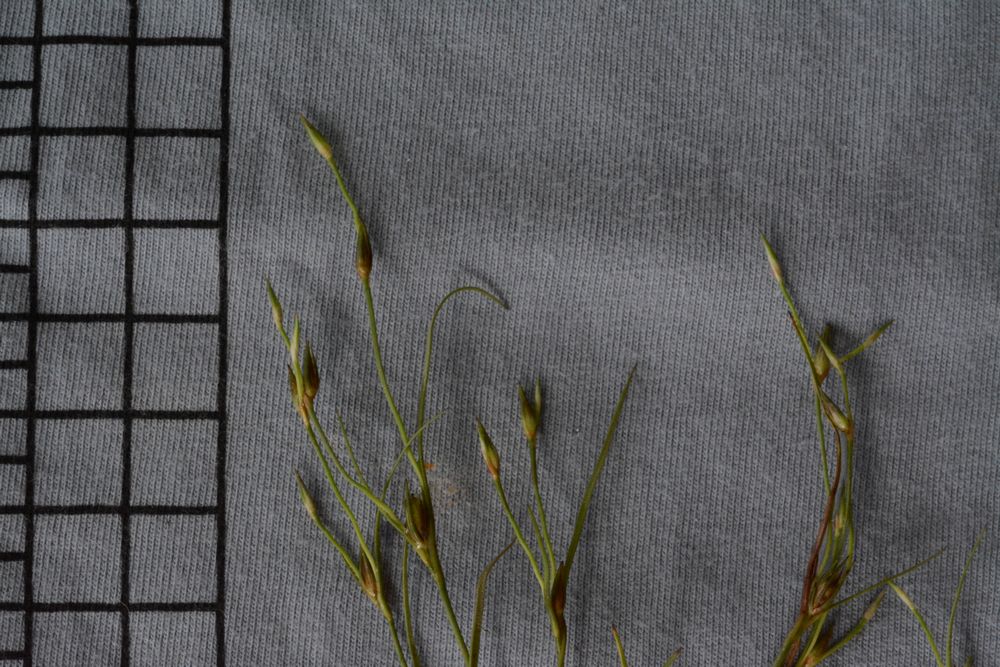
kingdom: Plantae
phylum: Tracheophyta
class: Liliopsida
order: Poales
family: Juncaceae
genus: Juncus
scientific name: Juncus bufonius
